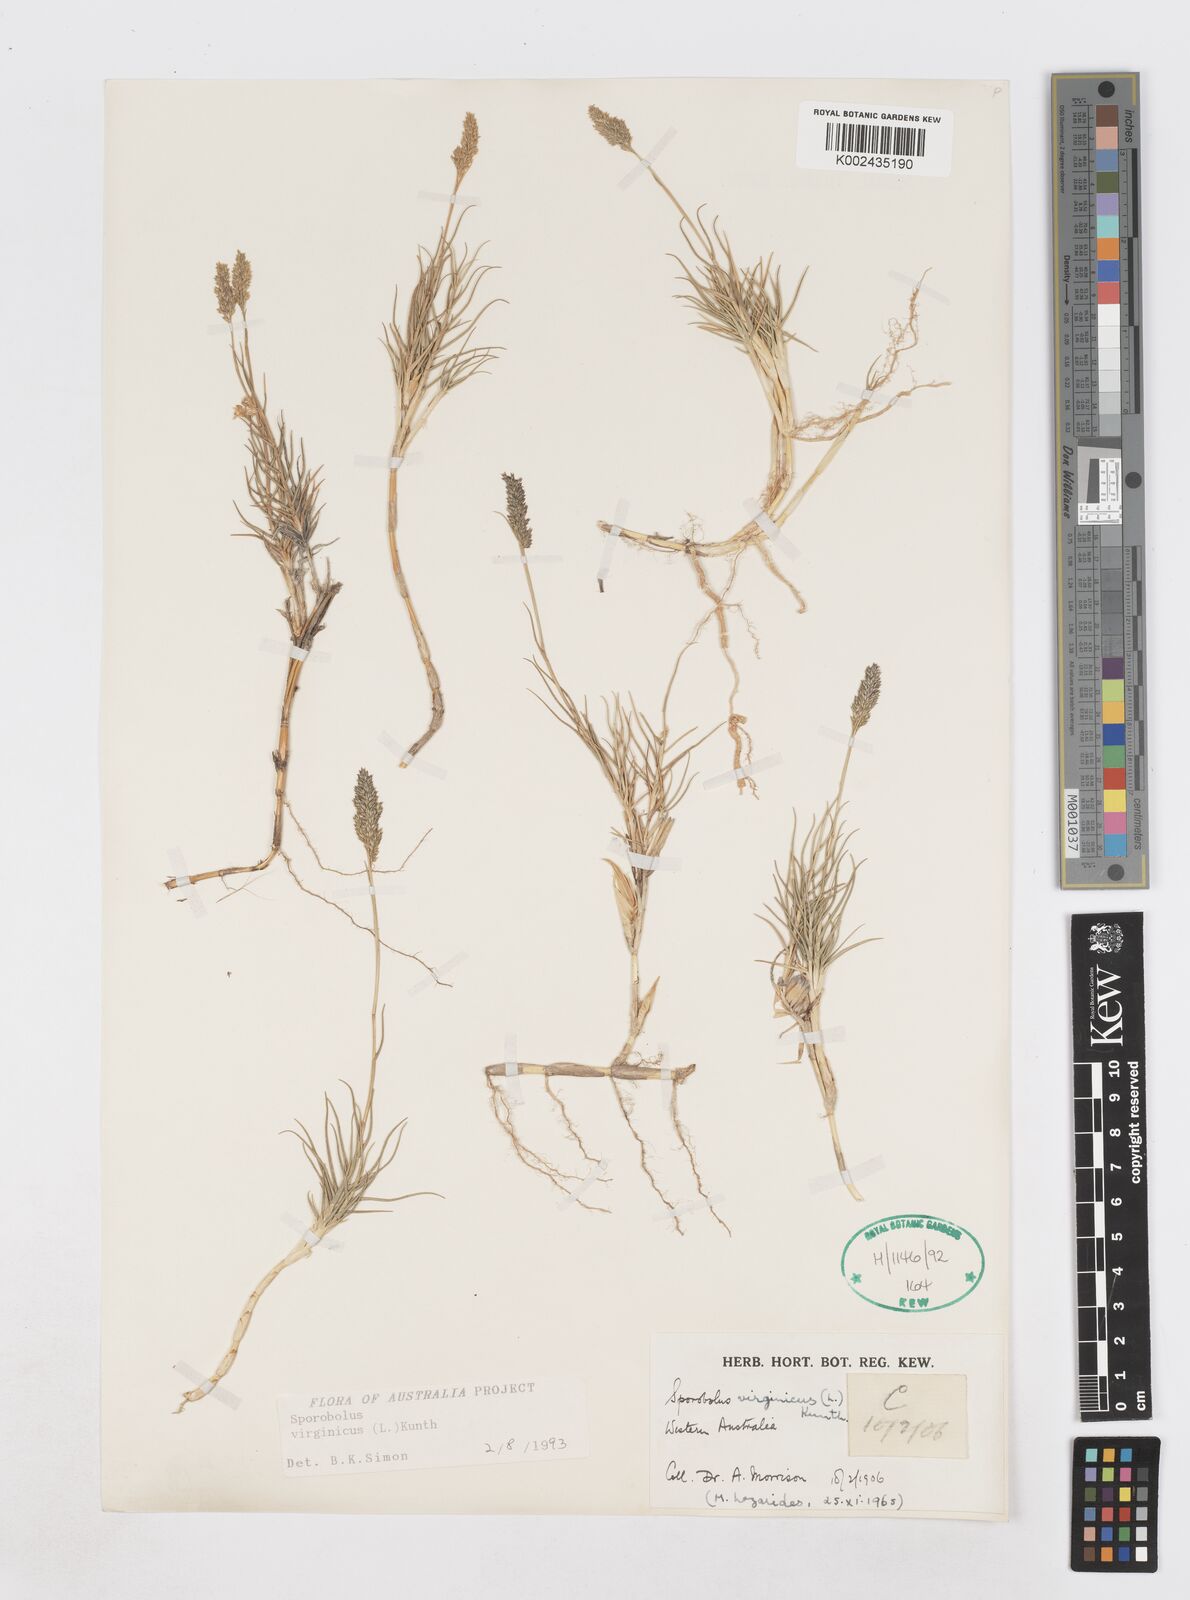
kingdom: Plantae
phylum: Tracheophyta
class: Liliopsida
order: Poales
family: Poaceae
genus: Sporobolus
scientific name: Sporobolus virginicus
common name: Beach dropseed
